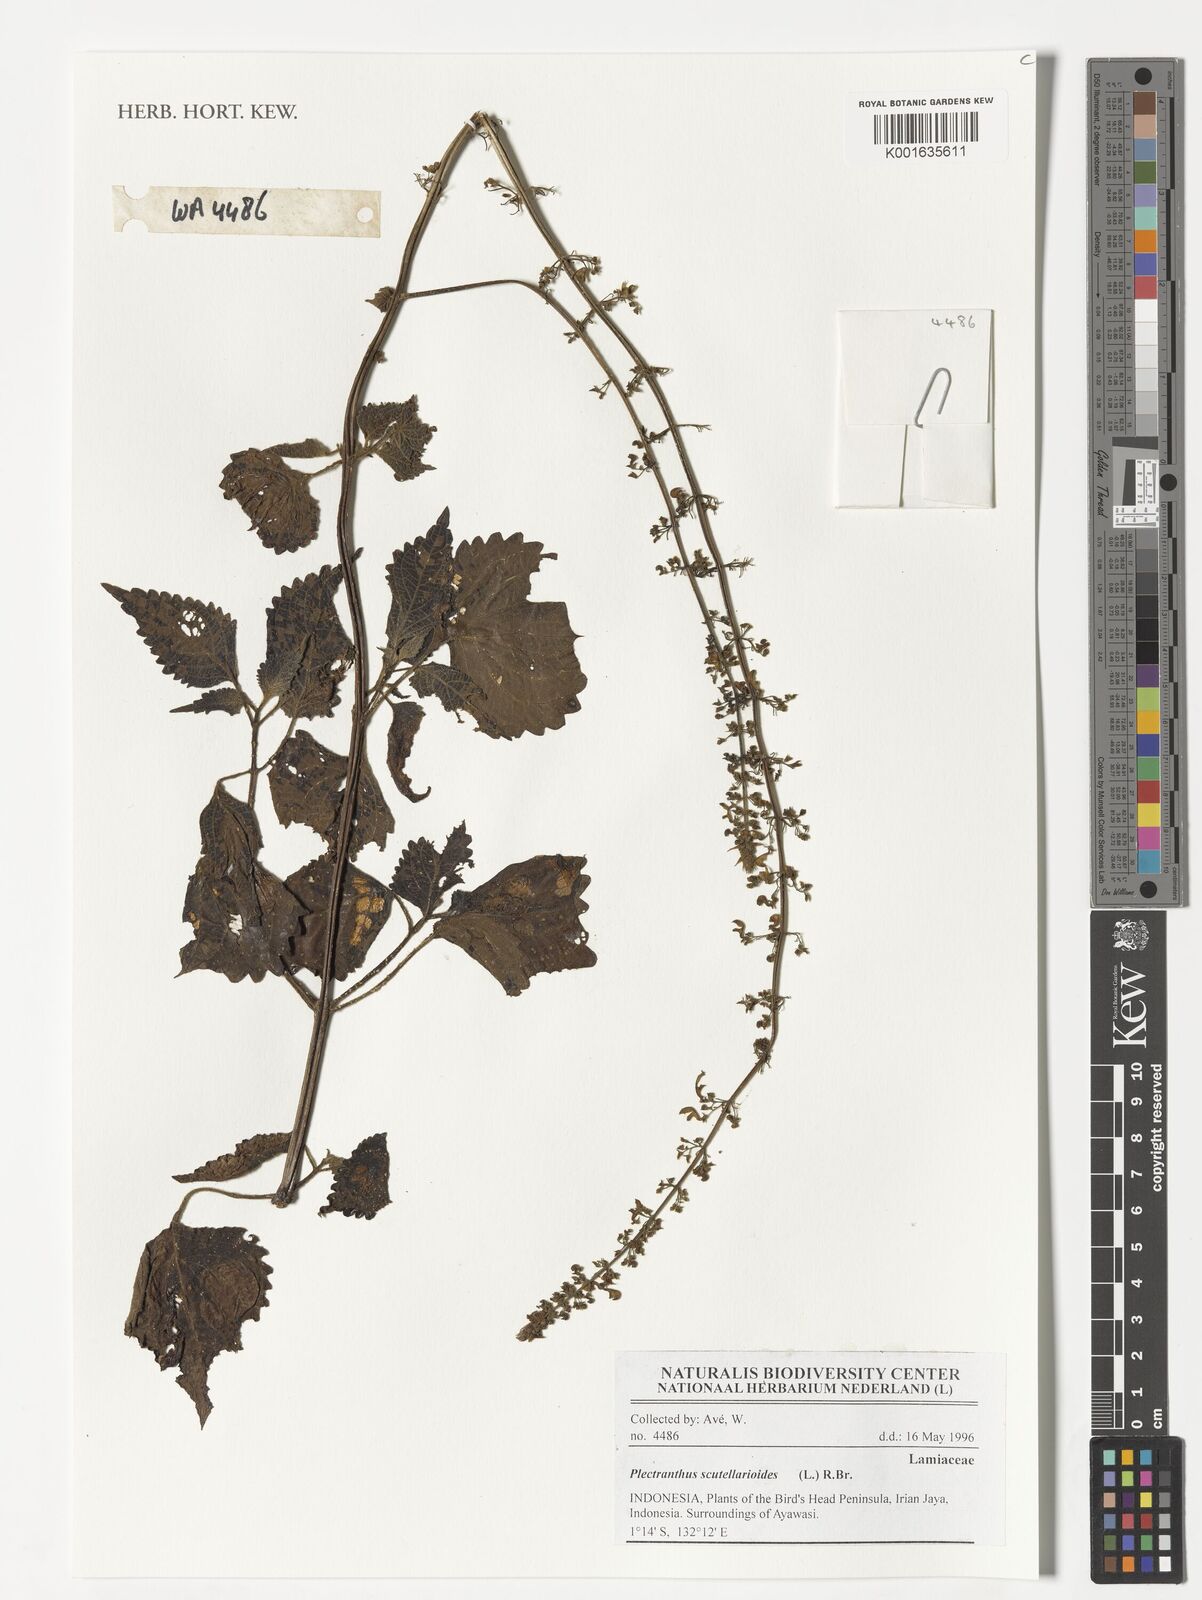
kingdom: Plantae
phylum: Tracheophyta
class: Magnoliopsida
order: Lamiales
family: Lamiaceae
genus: Coleus
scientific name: Coleus scutellarioides
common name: Coleus
